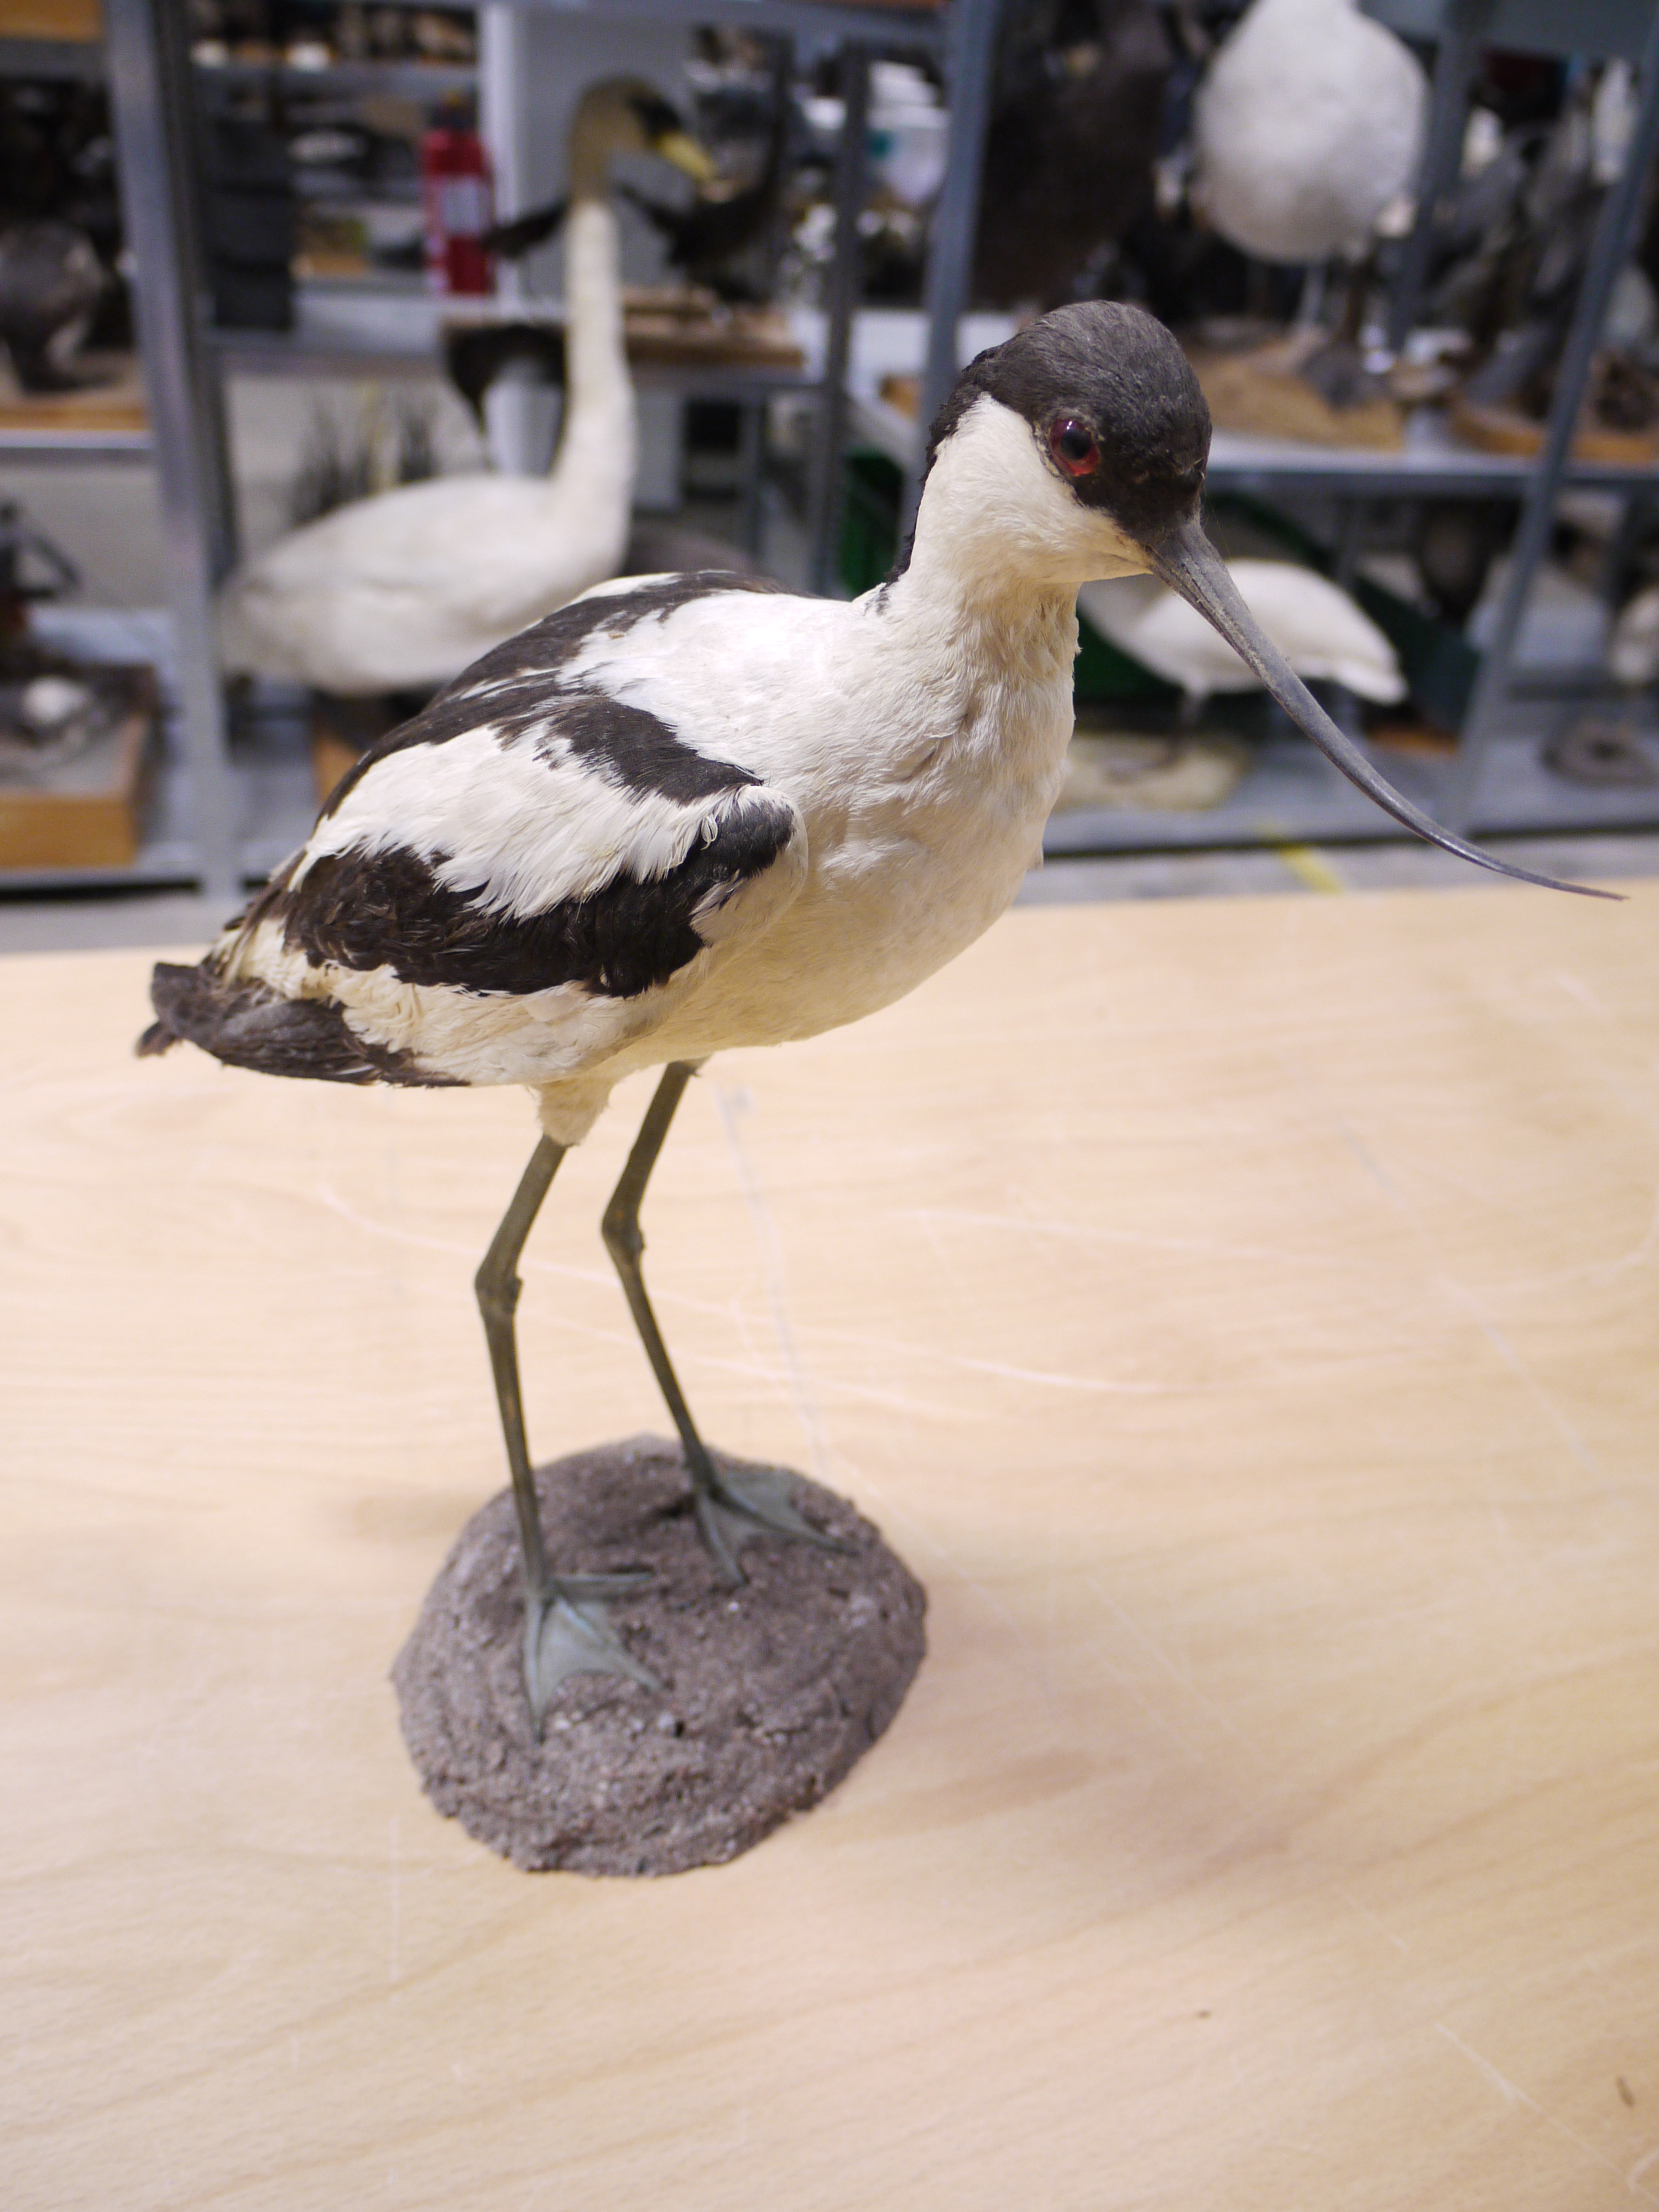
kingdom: Animalia
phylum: Chordata
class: Aves
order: Charadriiformes
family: Recurvirostridae
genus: Recurvirostra
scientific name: Recurvirostra avosetta
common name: Pied avocet
